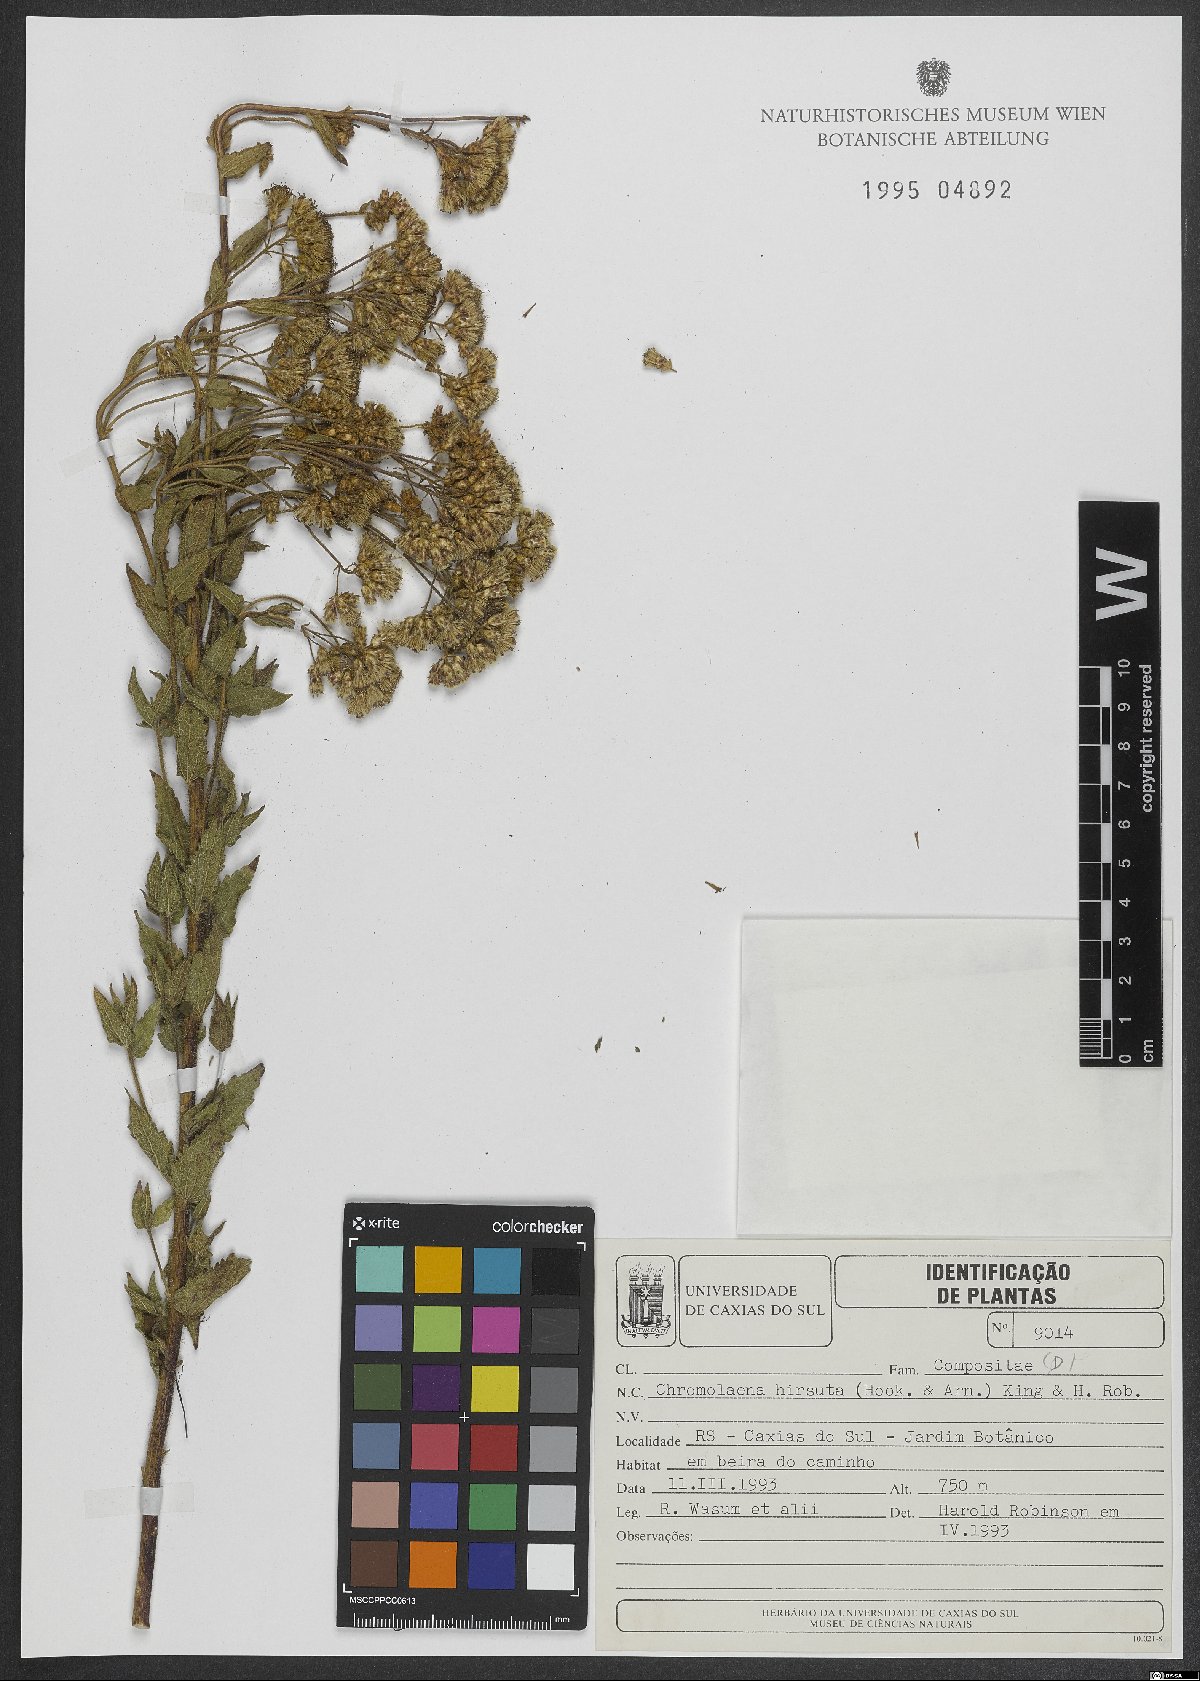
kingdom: Plantae
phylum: Tracheophyta
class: Magnoliopsida
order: Asterales
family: Asteraceae
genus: Chromolaena
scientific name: Chromolaena hirsuta
